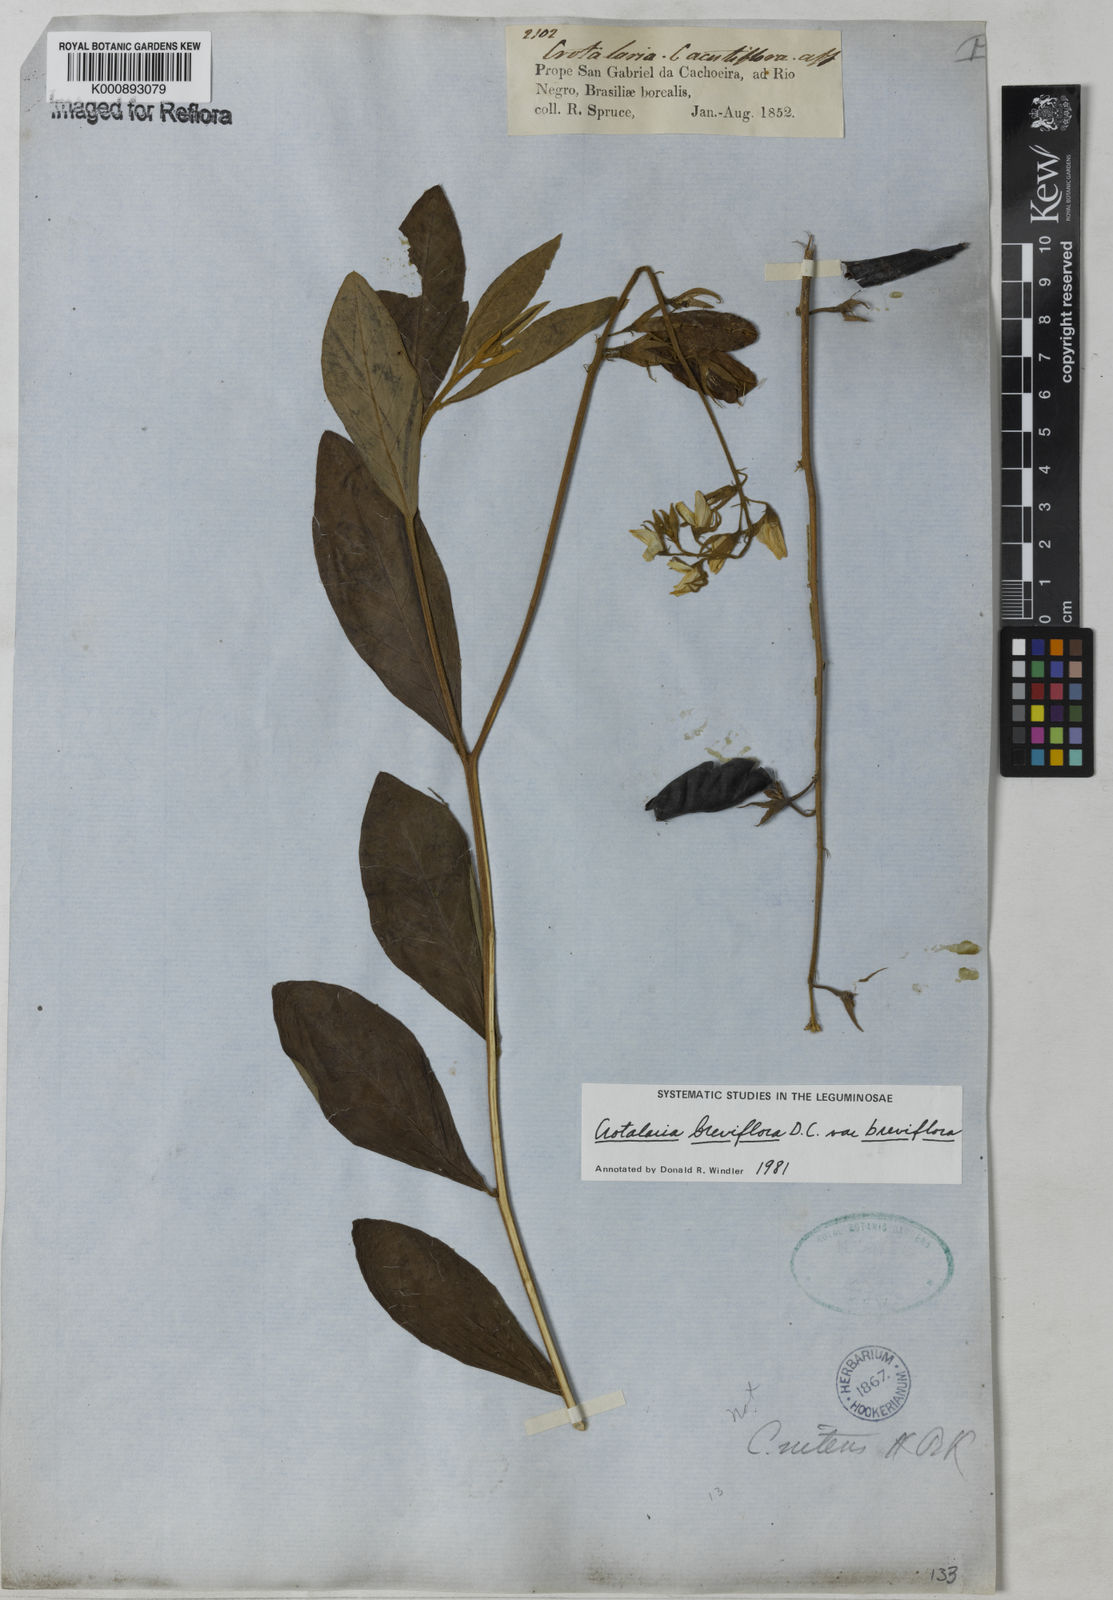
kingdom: Plantae
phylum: Tracheophyta
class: Magnoliopsida
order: Fabales
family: Fabaceae
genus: Crotalaria
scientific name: Crotalaria breviflora
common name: Short-flower crotalaria
